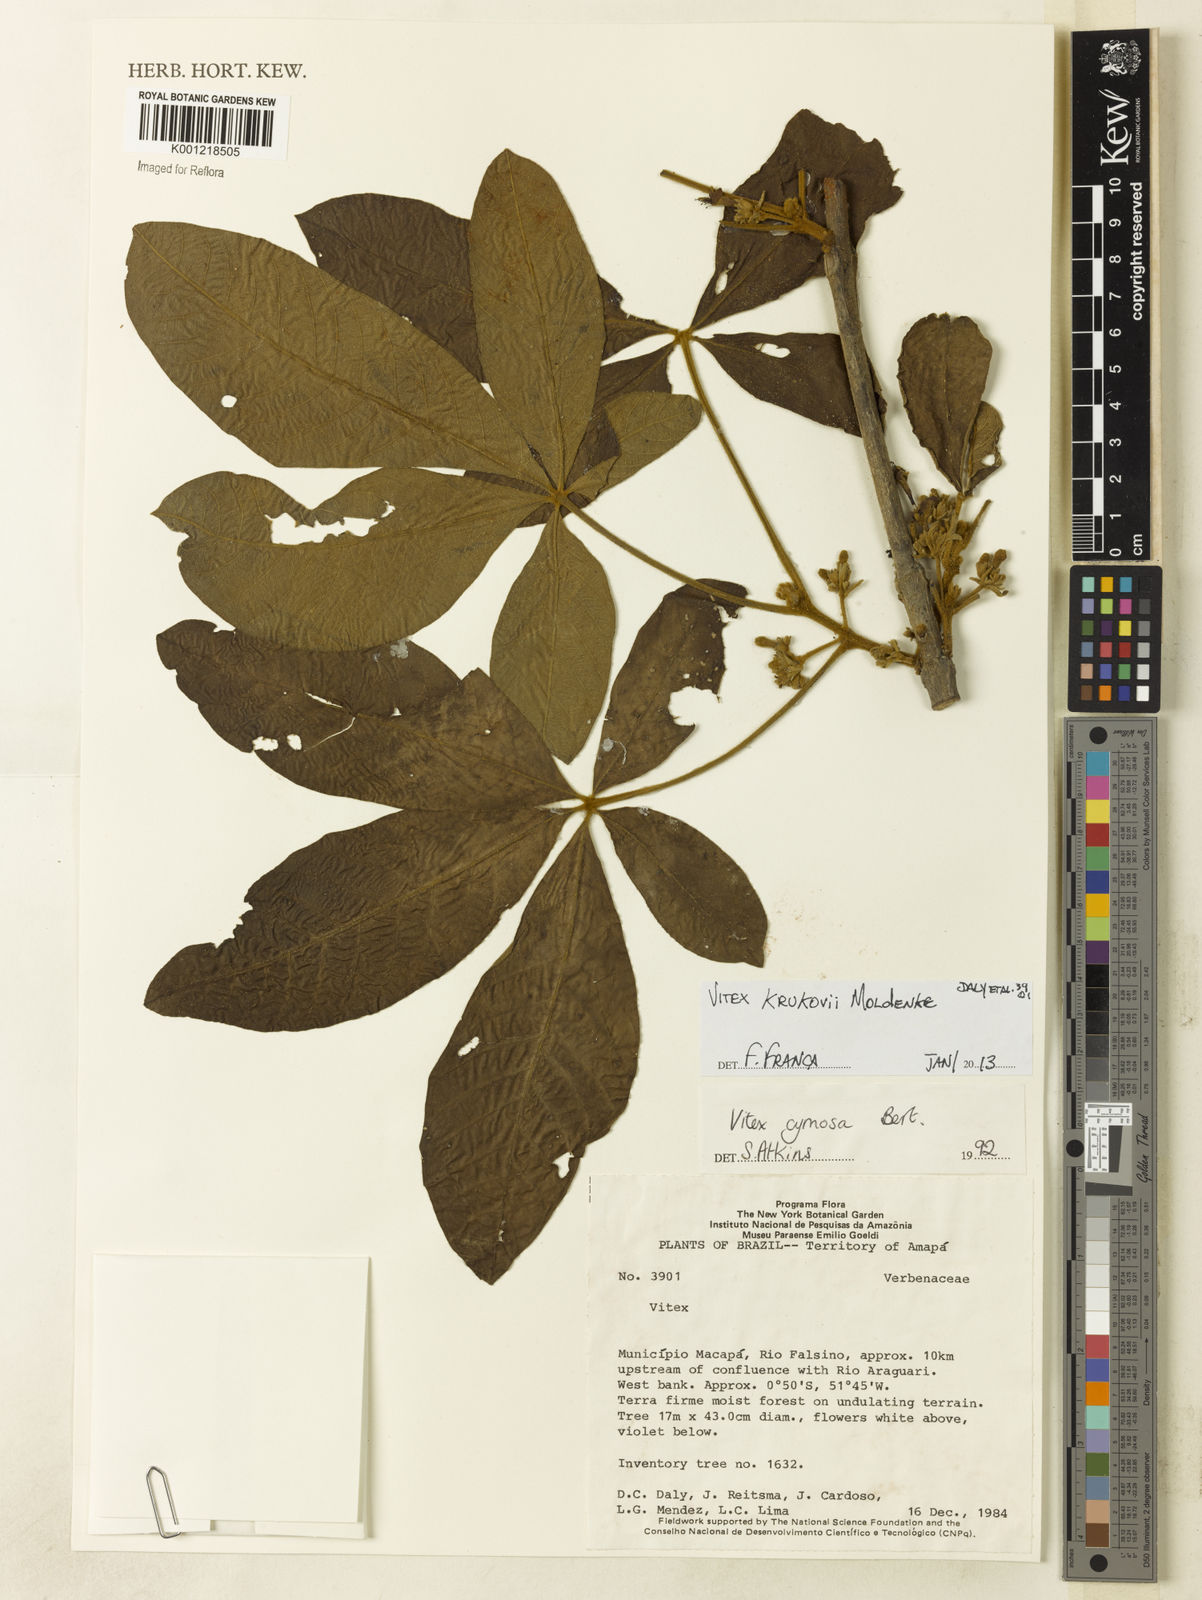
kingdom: Plantae
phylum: Tracheophyta
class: Magnoliopsida
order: Lamiales
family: Lamiaceae
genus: Vitex
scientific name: Vitex krukovii
